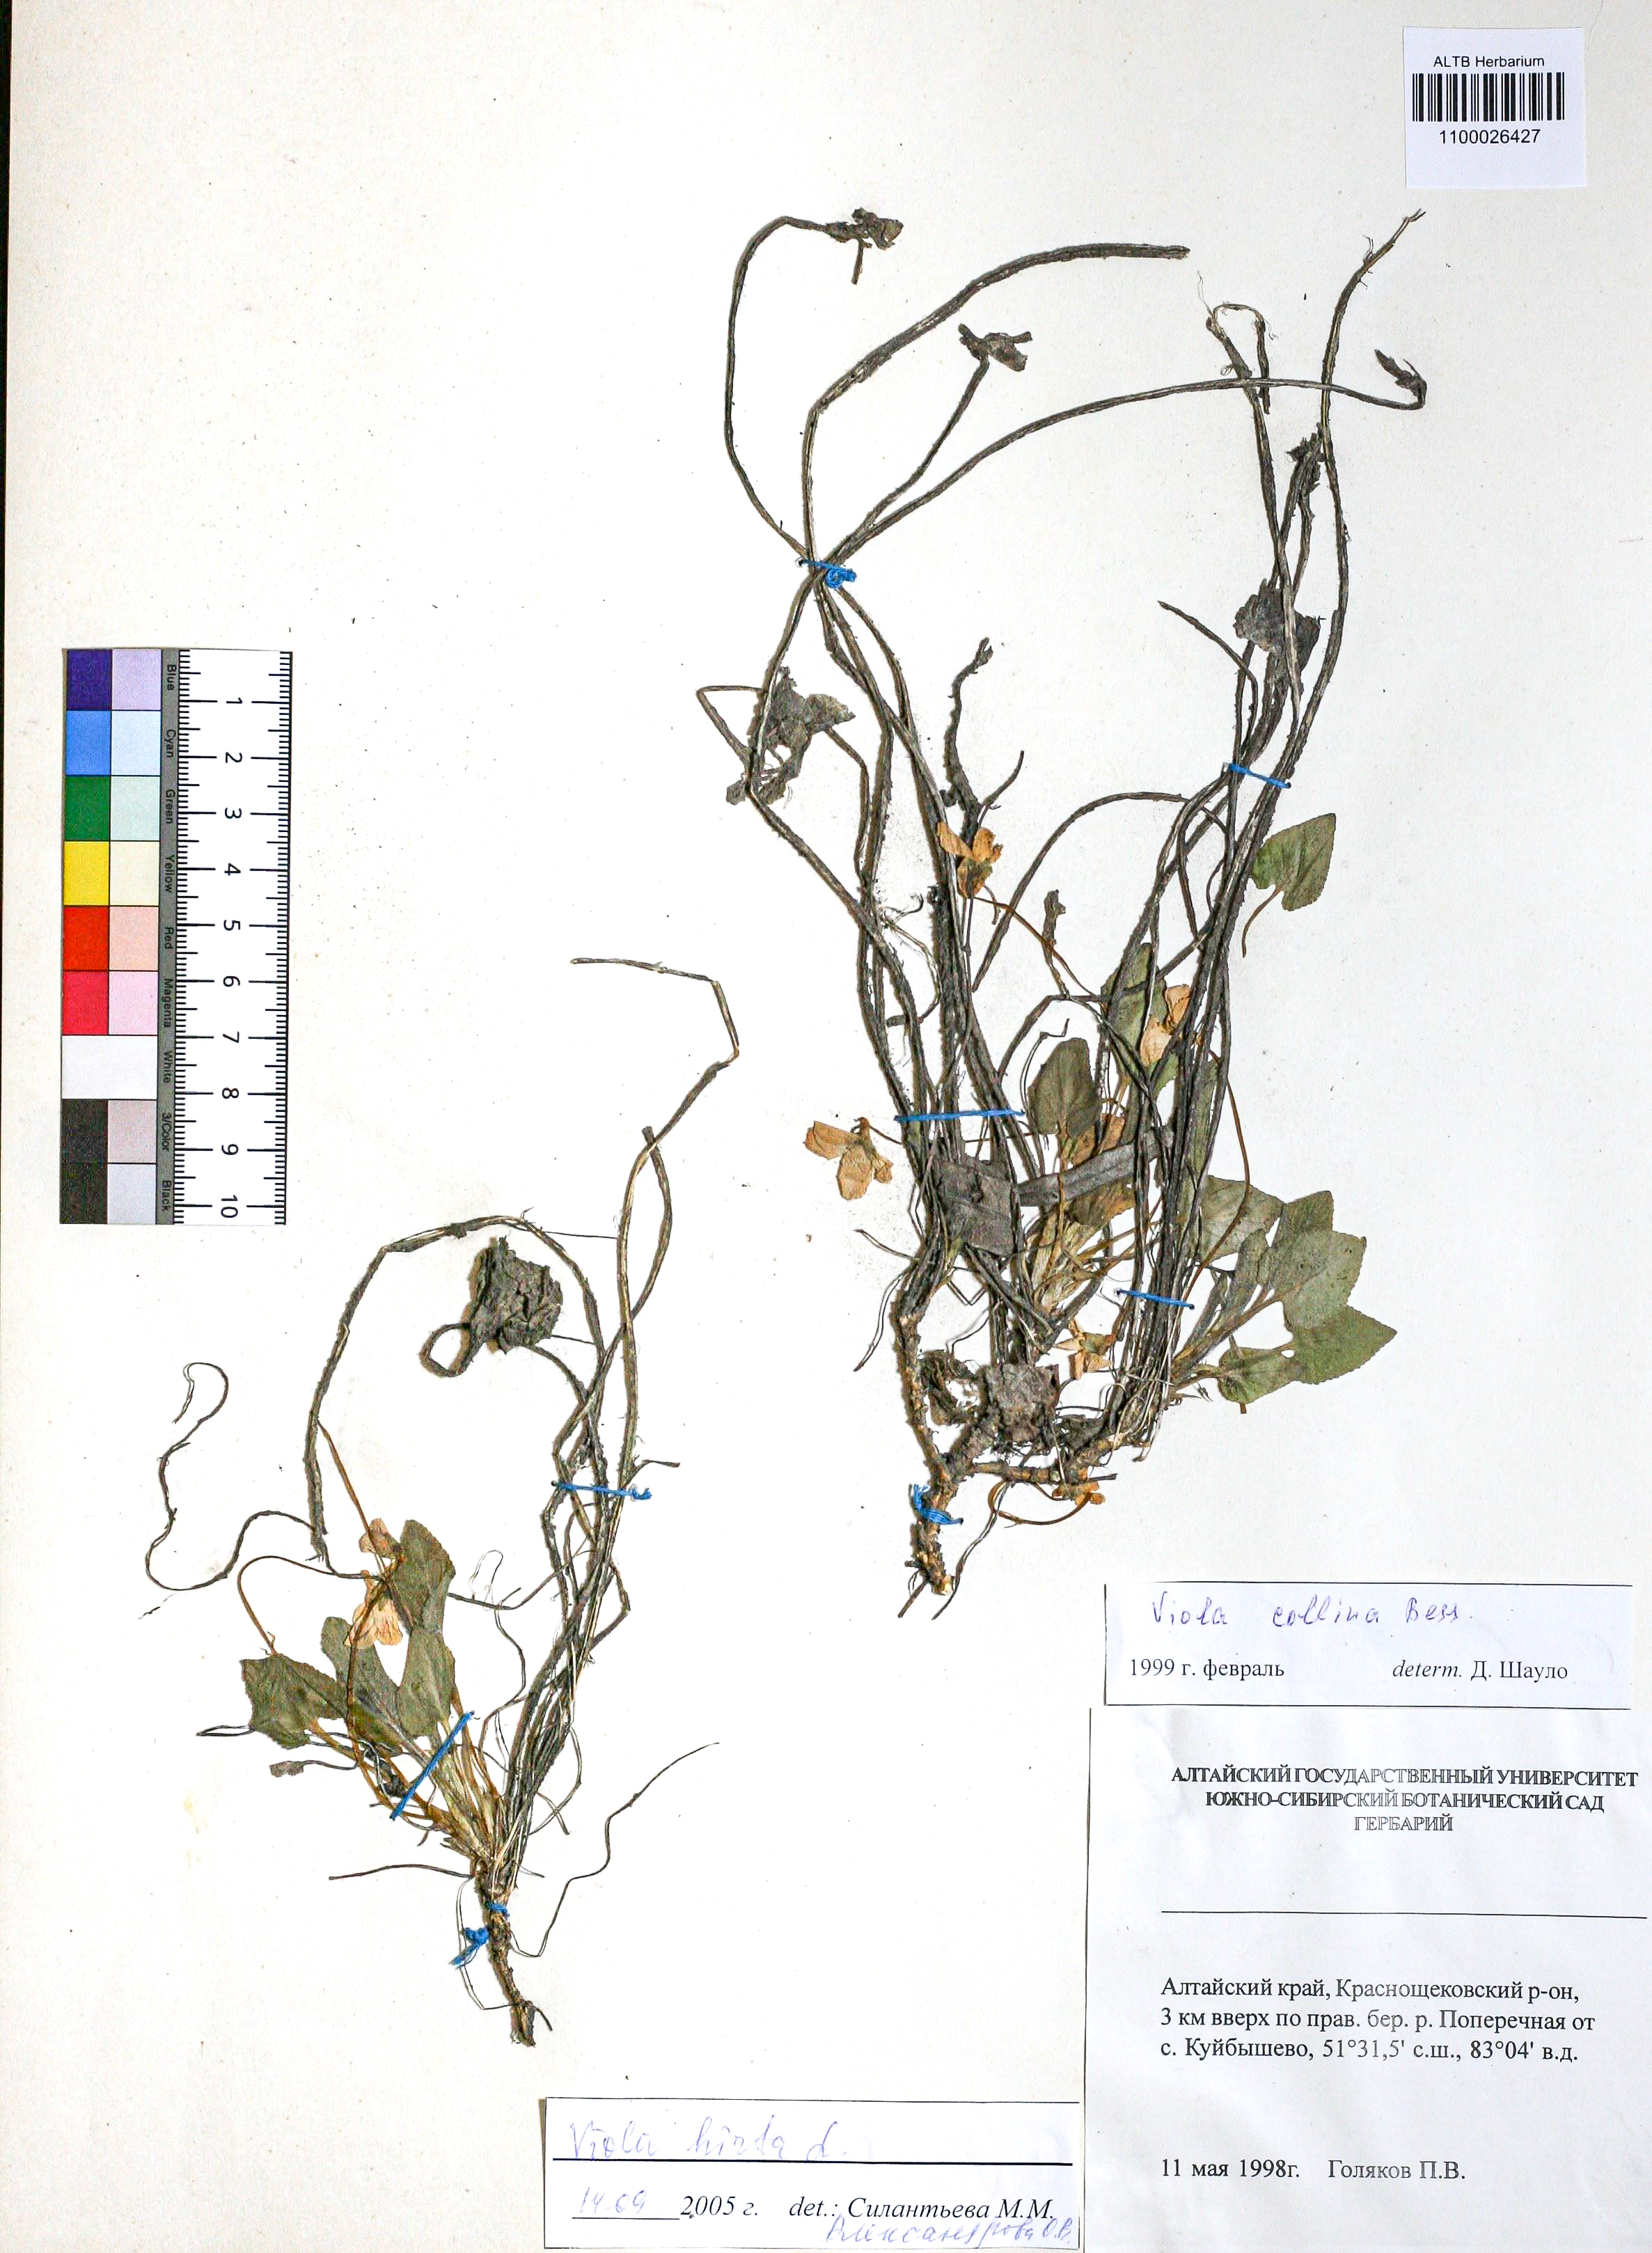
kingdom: Plantae
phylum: Tracheophyta
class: Magnoliopsida
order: Malpighiales
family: Violaceae
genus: Viola
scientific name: Viola hirta
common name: Hairy violet
